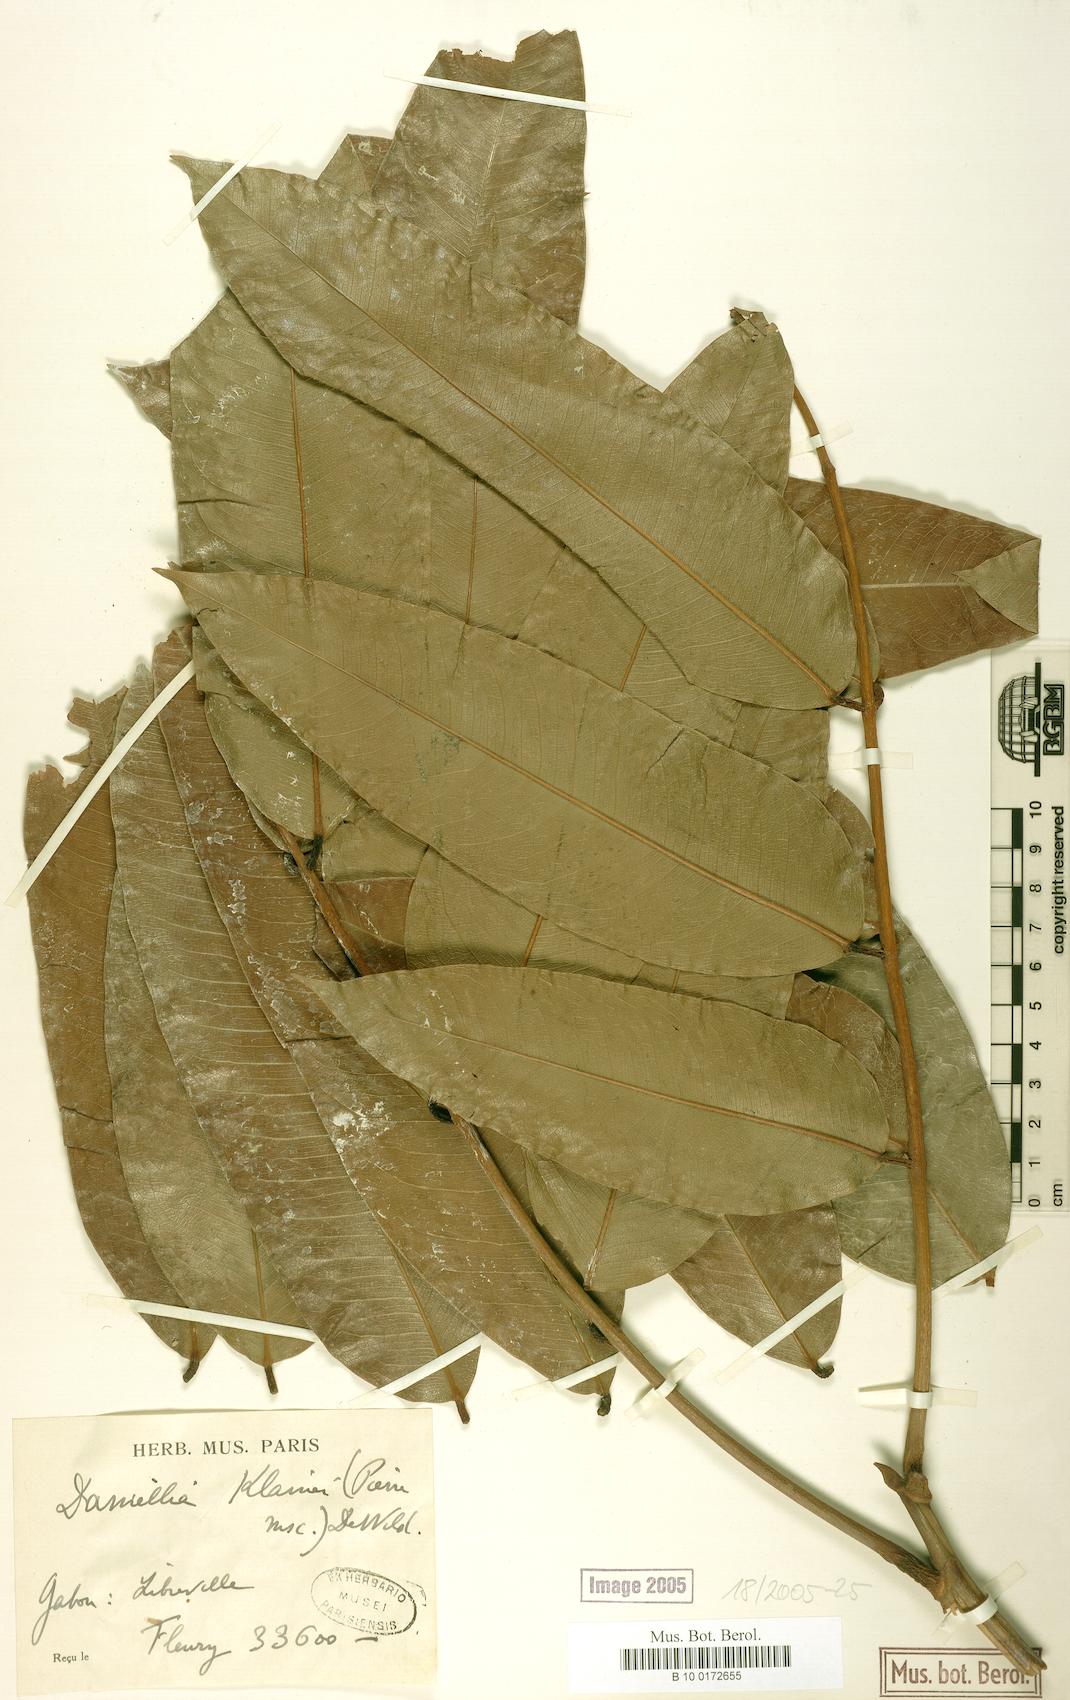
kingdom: Plantae
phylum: Tracheophyta
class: Magnoliopsida
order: Fabales
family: Fabaceae
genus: Daniellia
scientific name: Daniellia klainei
